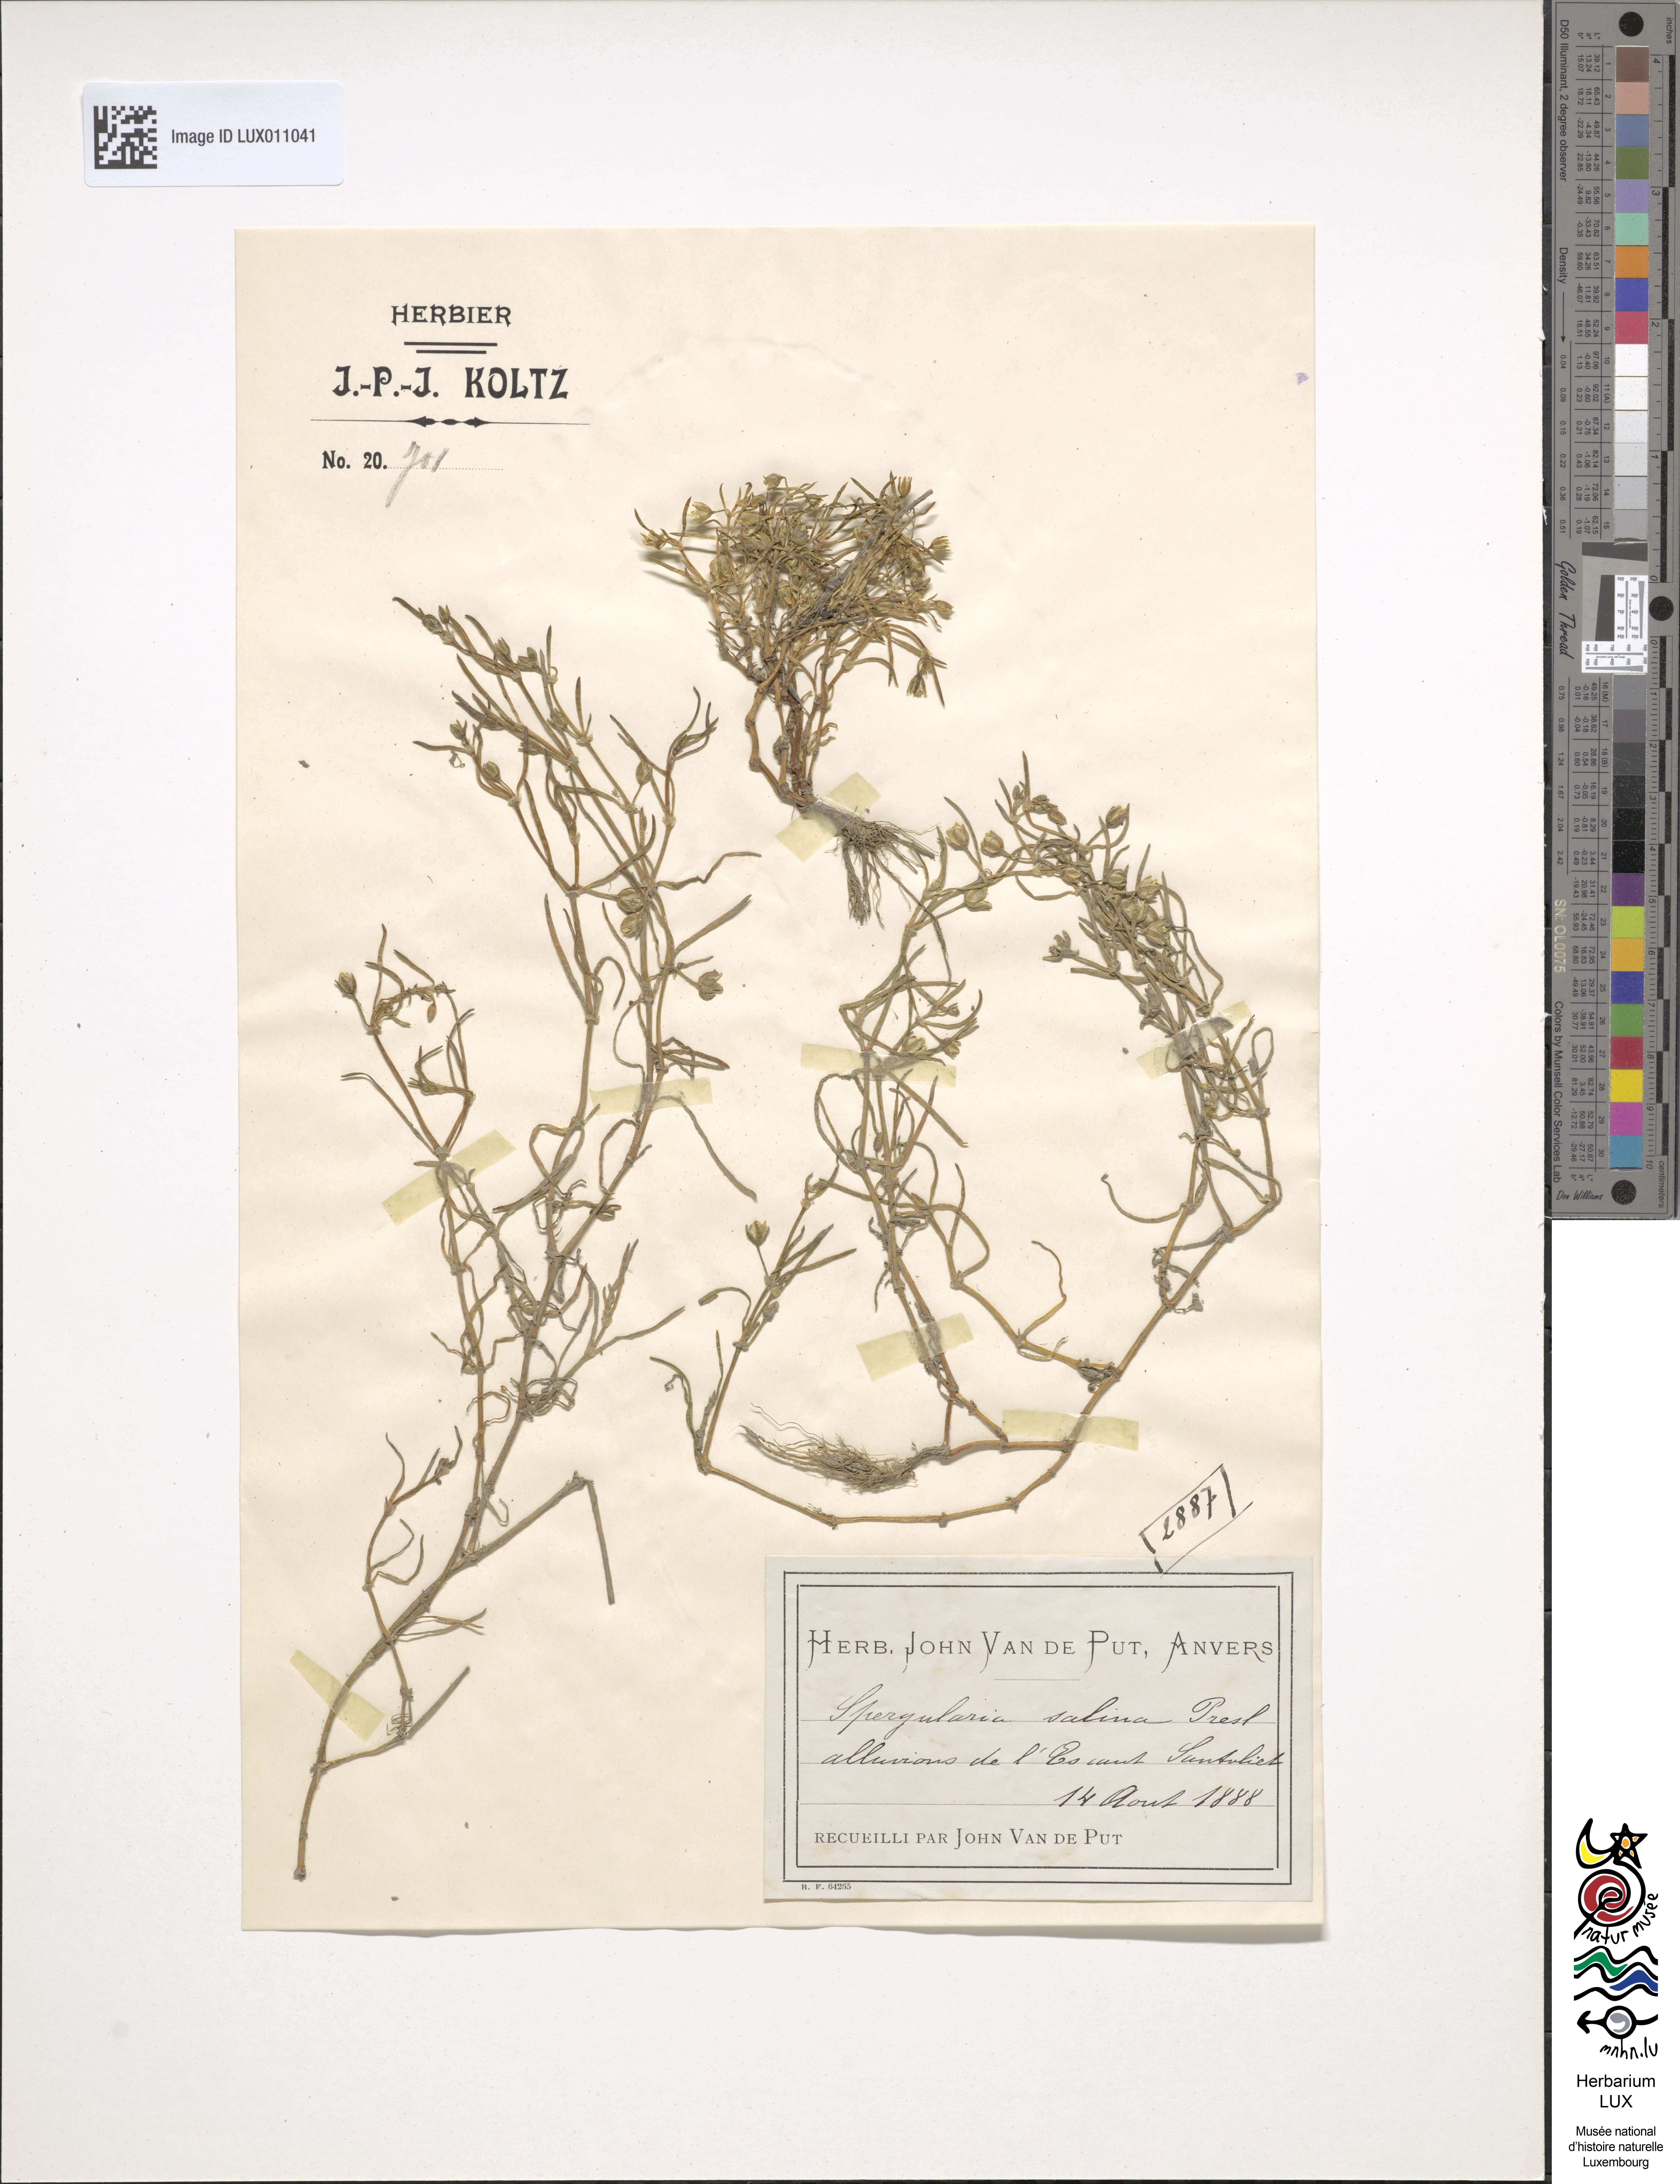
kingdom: Plantae
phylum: Tracheophyta
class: Magnoliopsida
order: Caryophyllales
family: Caryophyllaceae
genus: Spergularia
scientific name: Spergularia marina
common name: Lesser sea-spurrey
